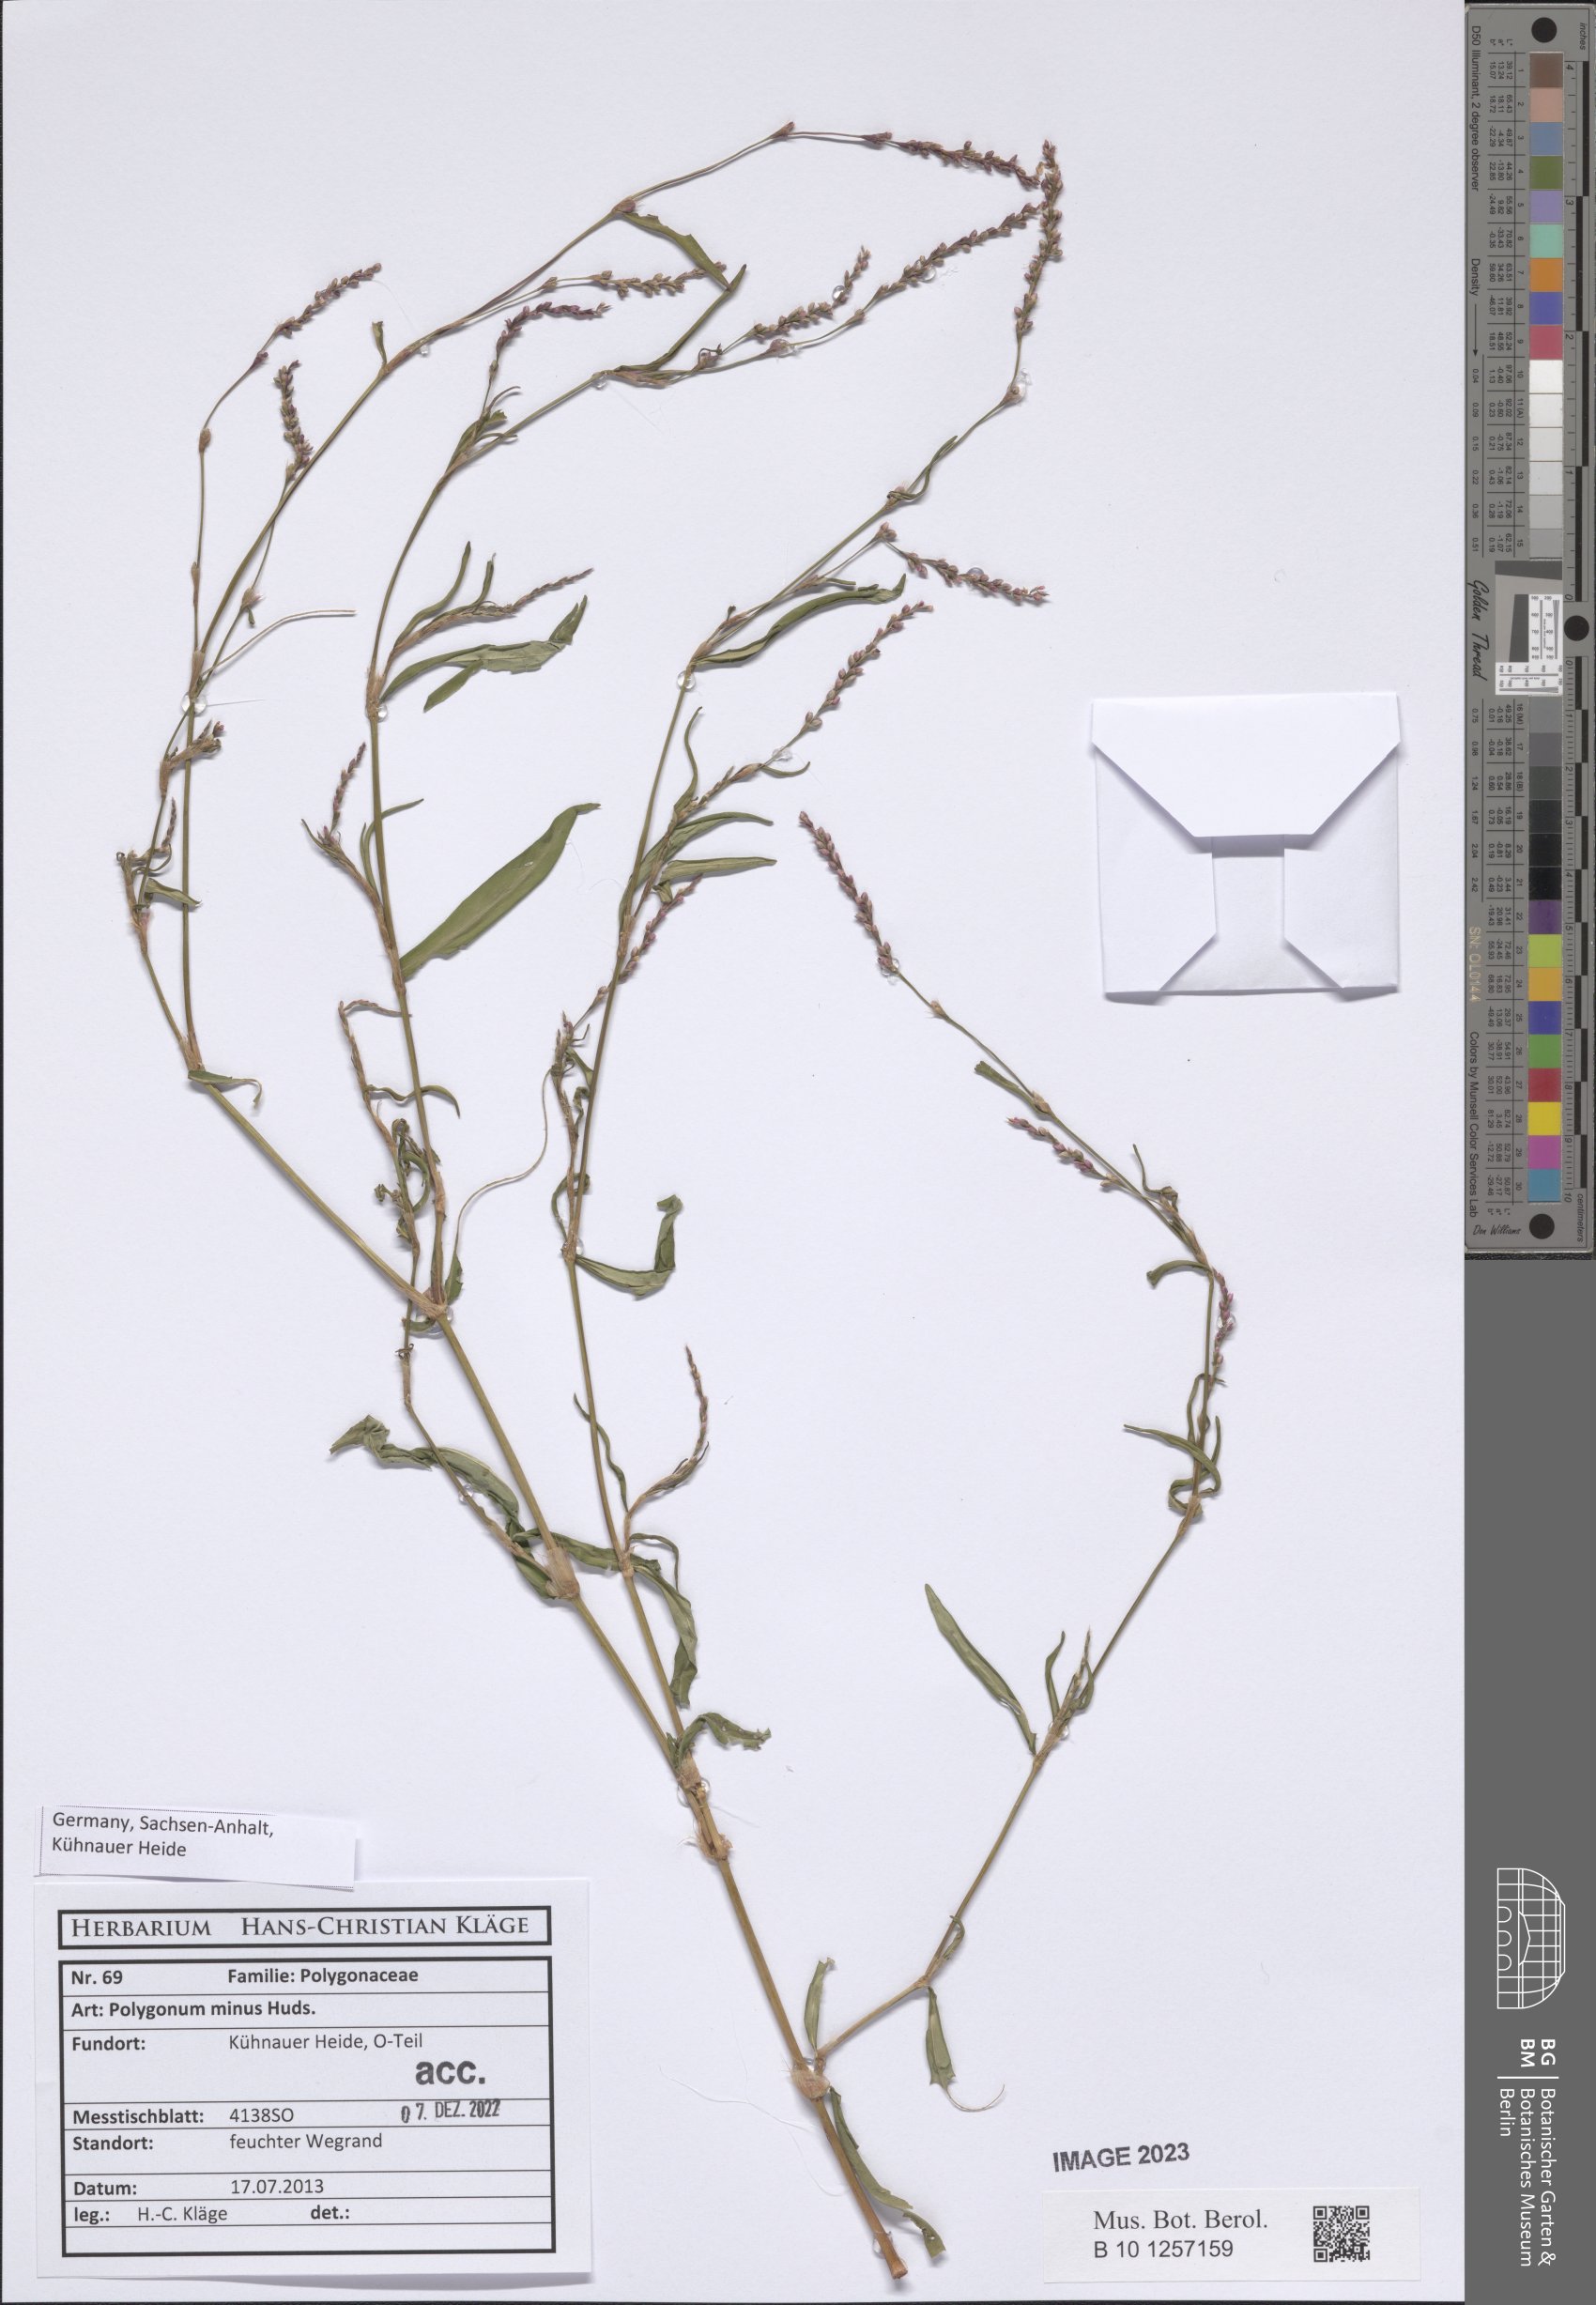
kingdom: Plantae
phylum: Tracheophyta
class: Magnoliopsida
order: Caryophyllales
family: Polygonaceae
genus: Persicaria
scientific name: Persicaria minor
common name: Small water-pepper
